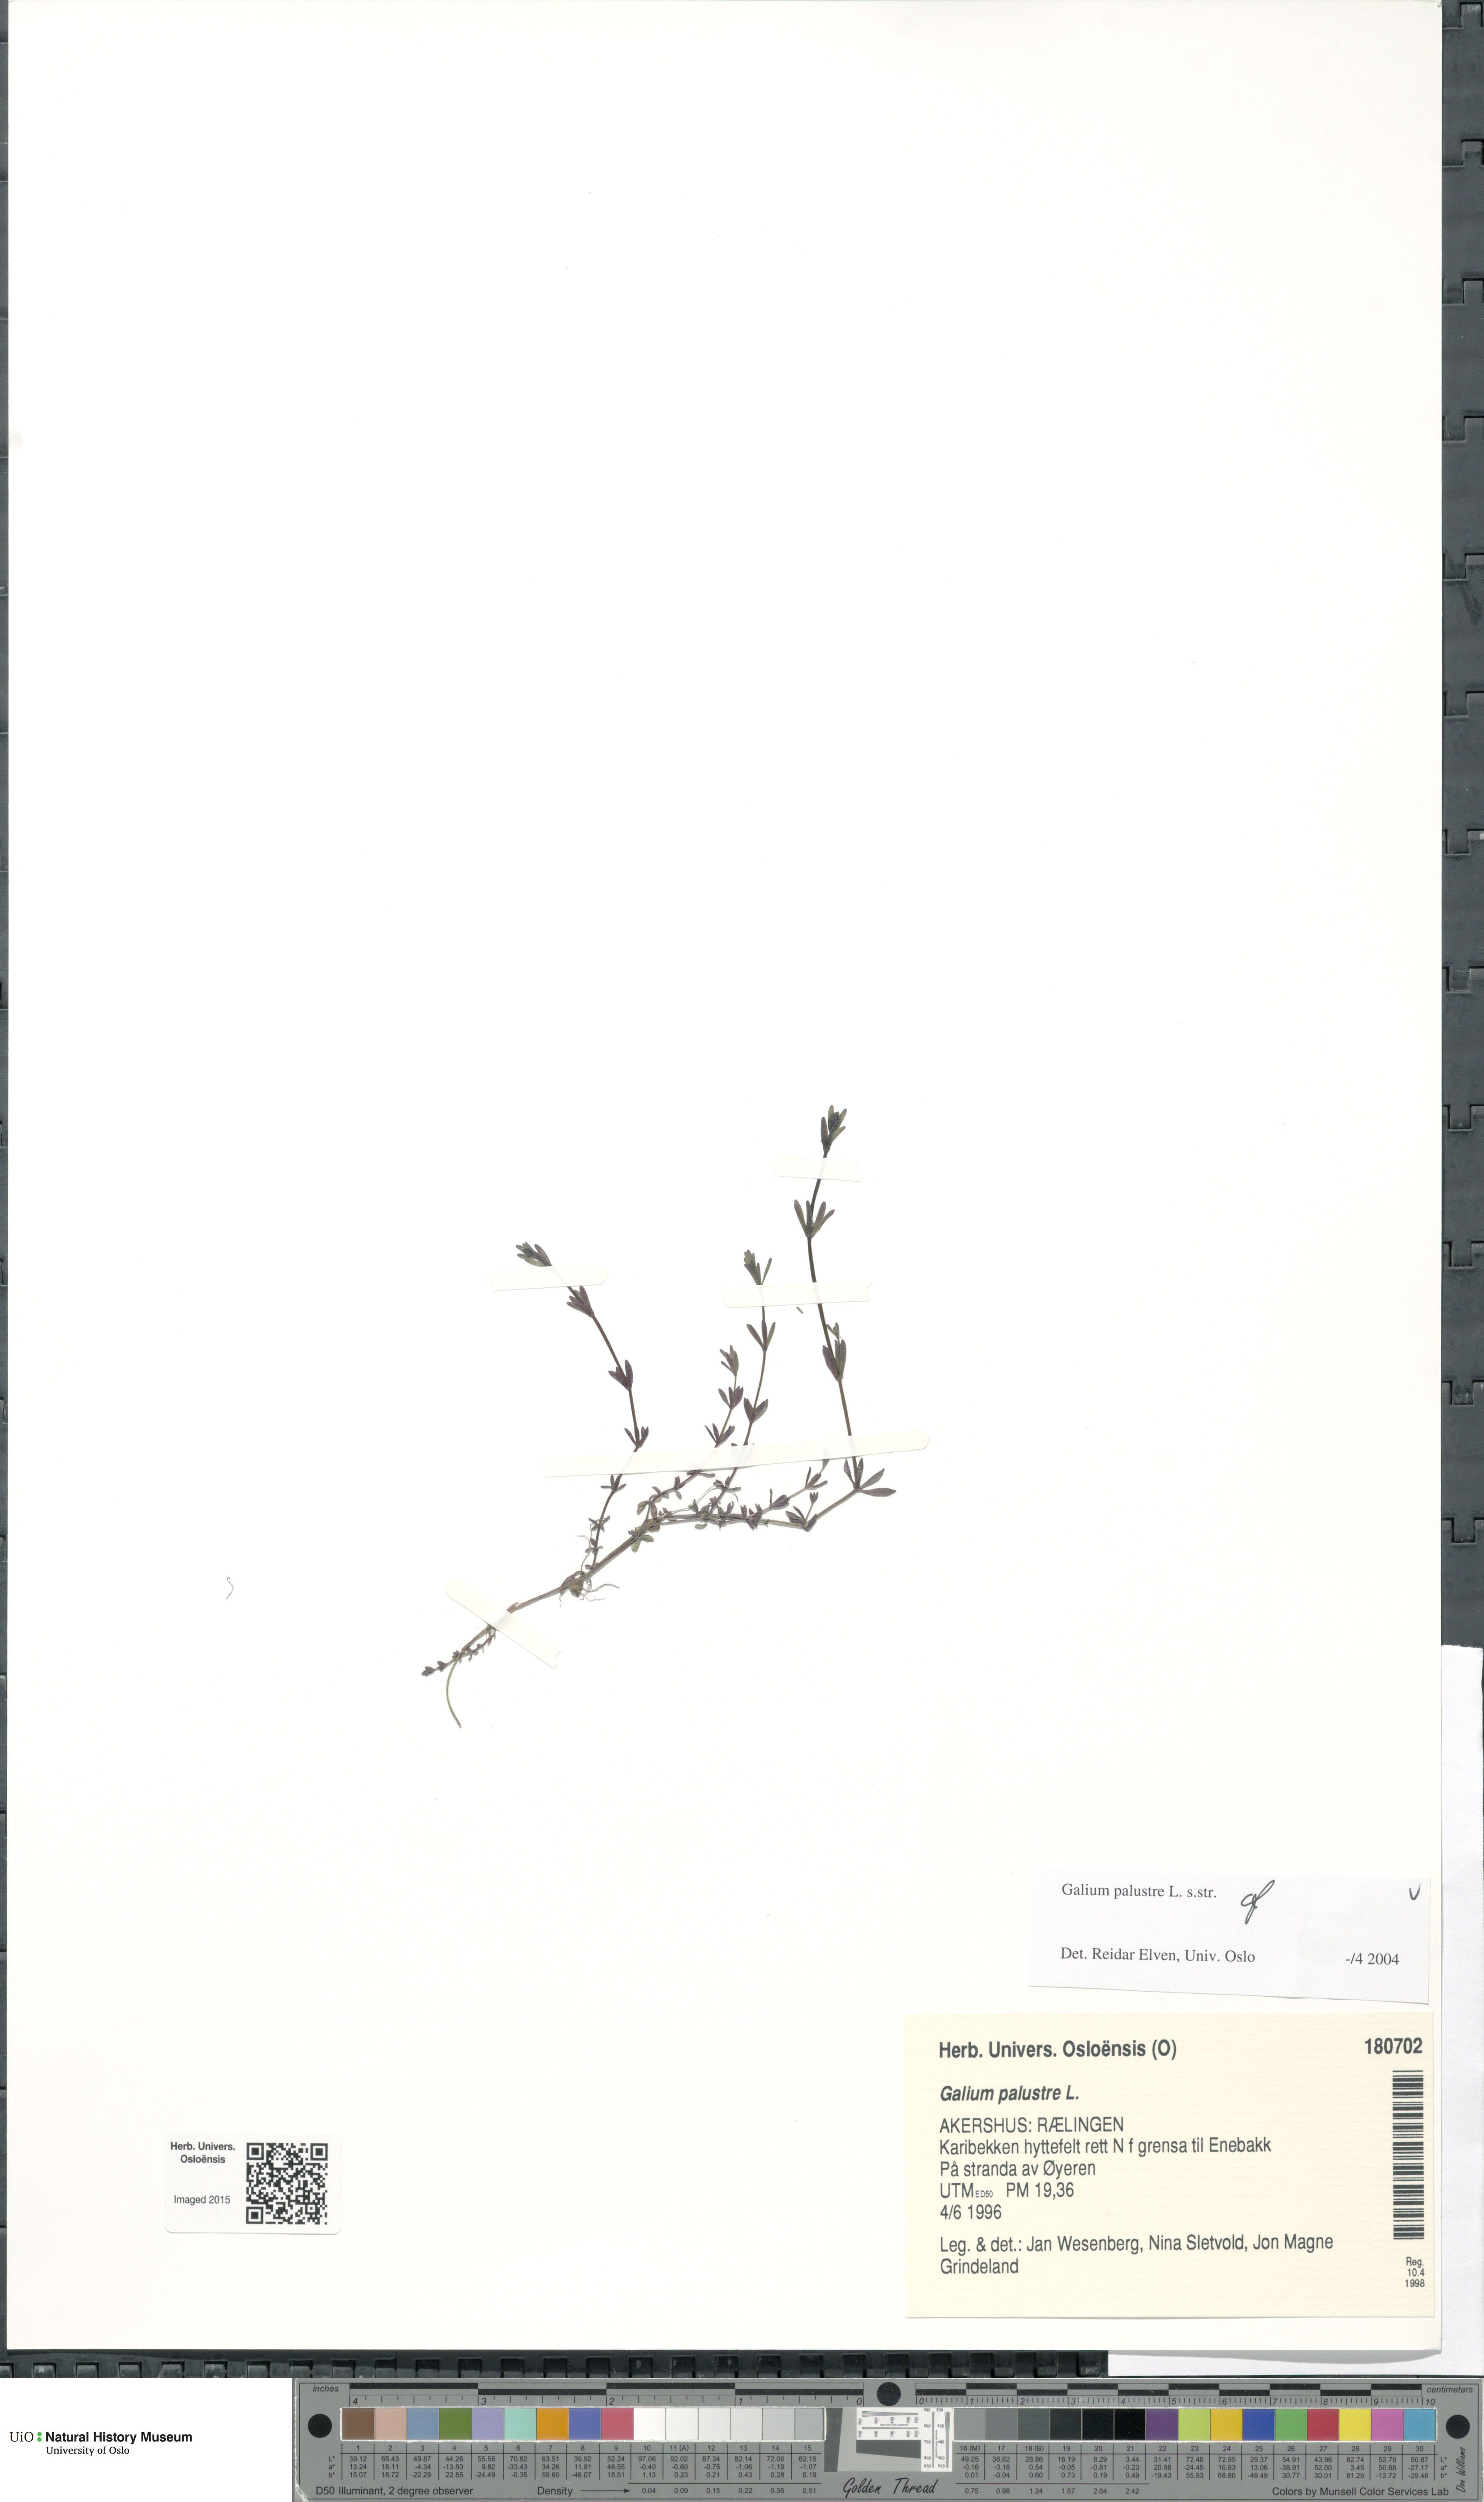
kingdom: Plantae
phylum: Tracheophyta
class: Magnoliopsida
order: Gentianales
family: Rubiaceae
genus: Galium
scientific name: Galium palustre
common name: Common marsh-bedstraw
